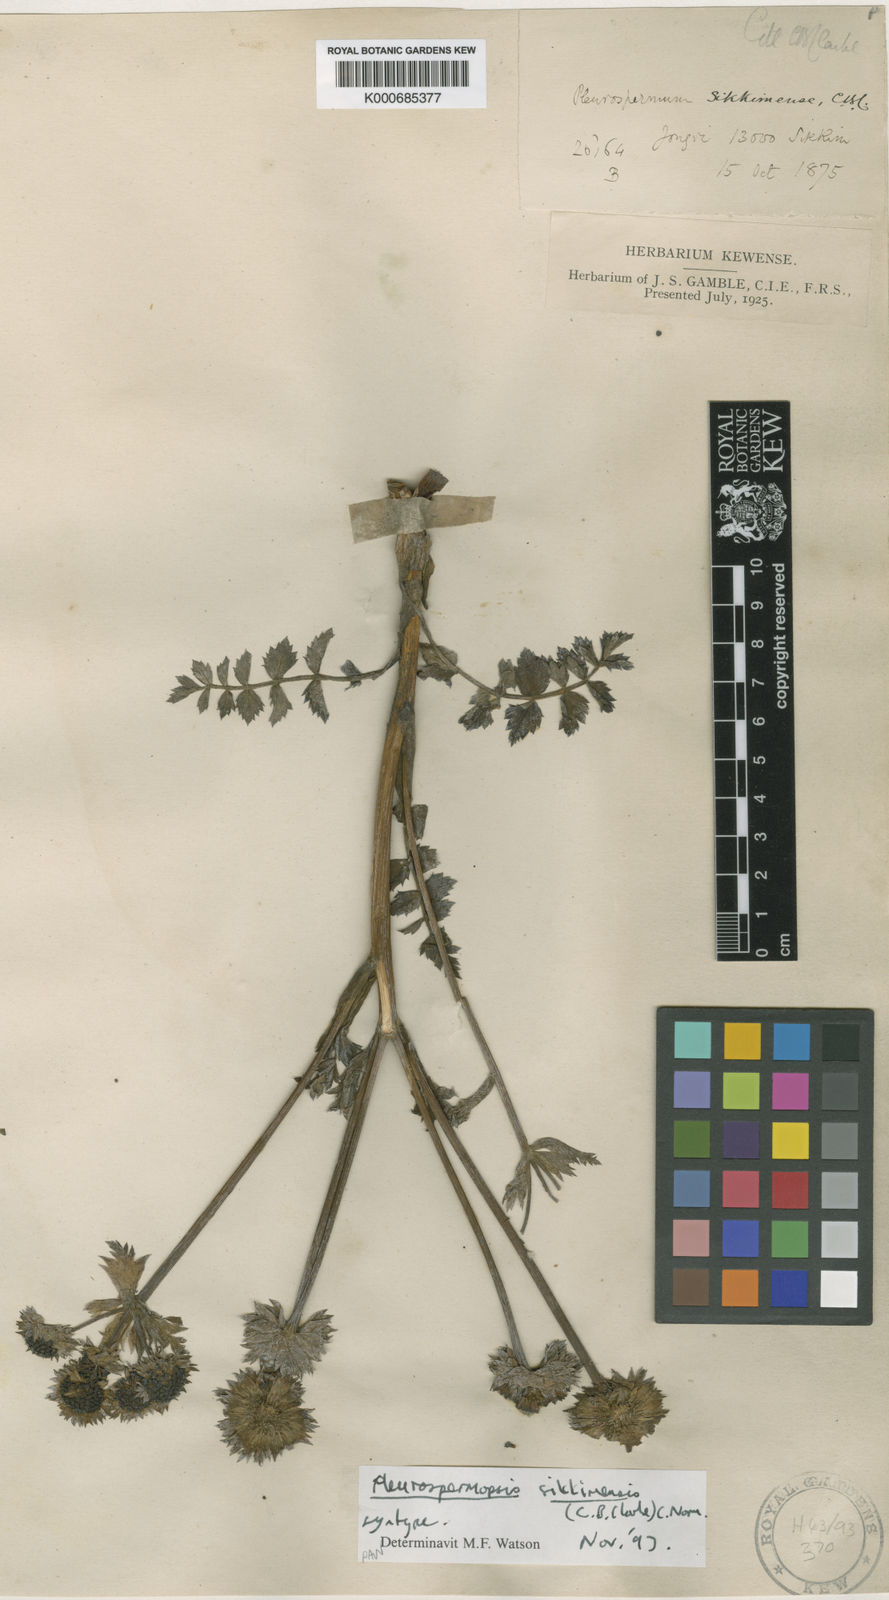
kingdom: Plantae
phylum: Tracheophyta
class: Magnoliopsida
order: Apiales
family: Apiaceae
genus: Pleurospermopsis
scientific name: Pleurospermopsis sikkimensis
